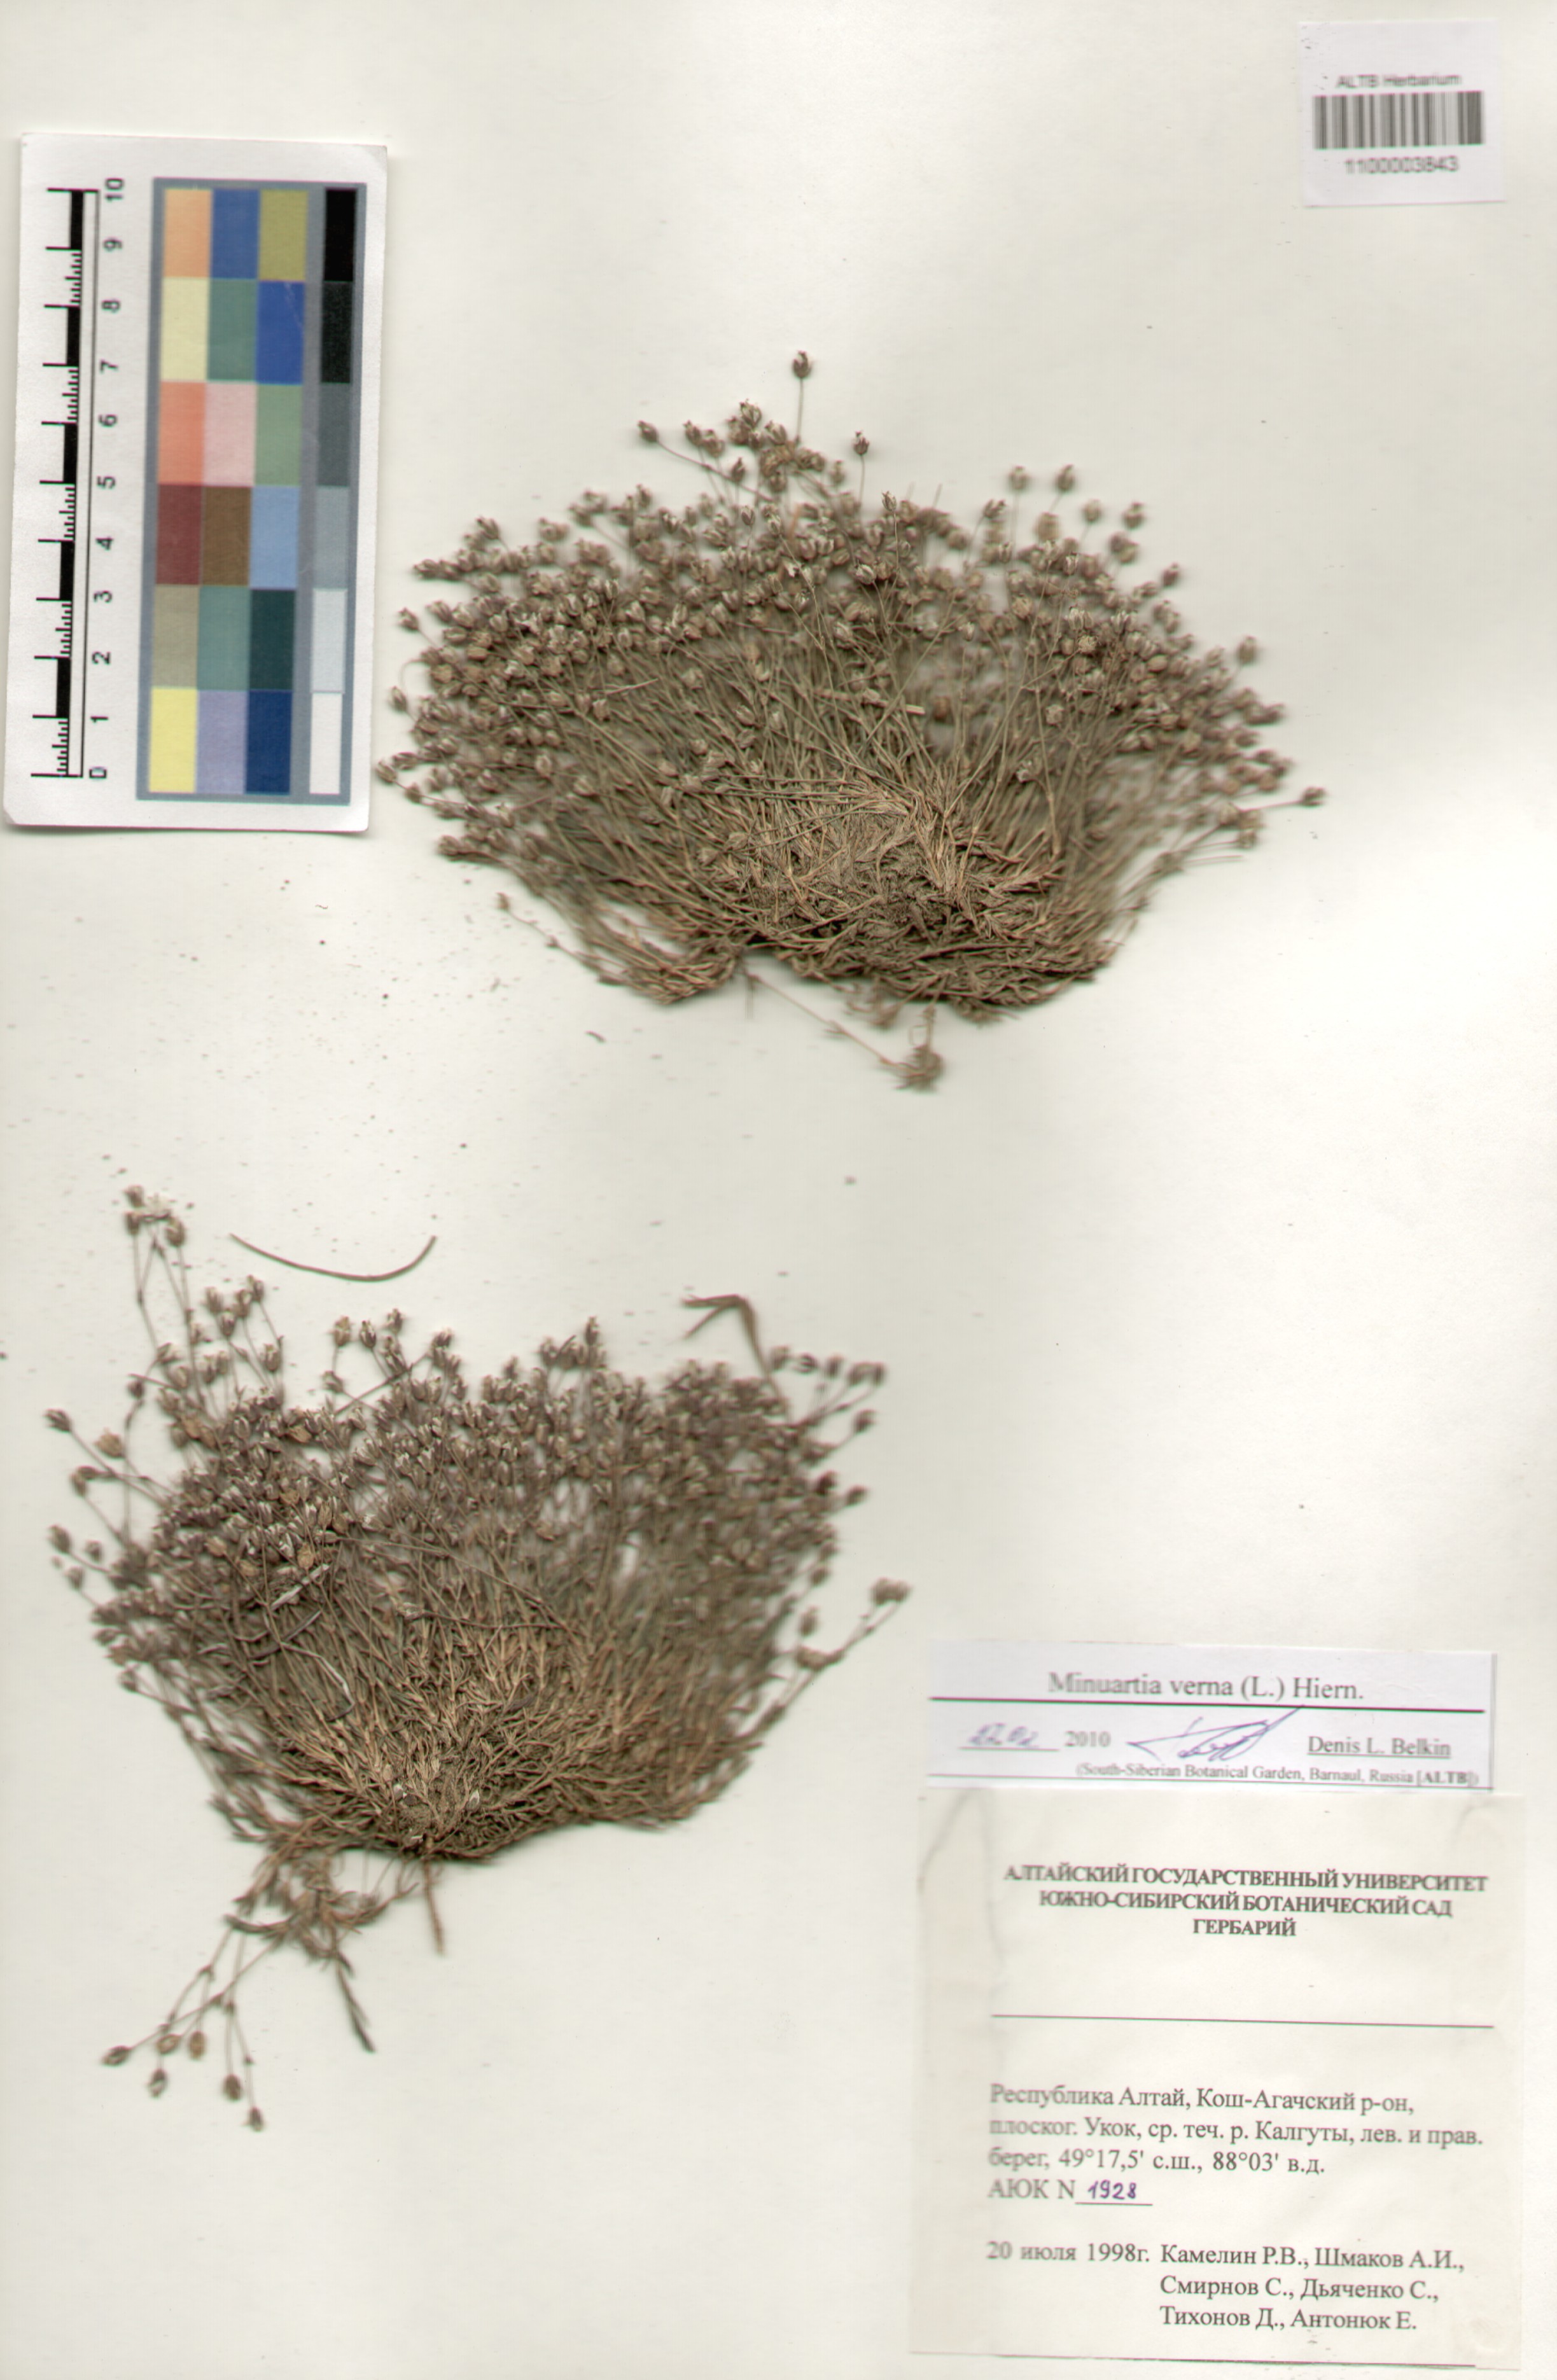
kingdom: Plantae
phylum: Tracheophyta
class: Magnoliopsida
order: Caryophyllales
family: Caryophyllaceae
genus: Sabulina
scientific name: Sabulina verna
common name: Spring sandwort
